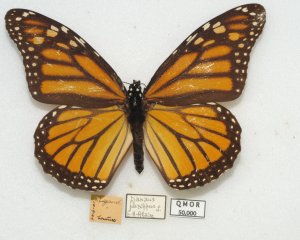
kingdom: Animalia
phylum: Arthropoda
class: Insecta
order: Lepidoptera
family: Nymphalidae
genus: Danaus
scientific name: Danaus plexippus
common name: Monarch
